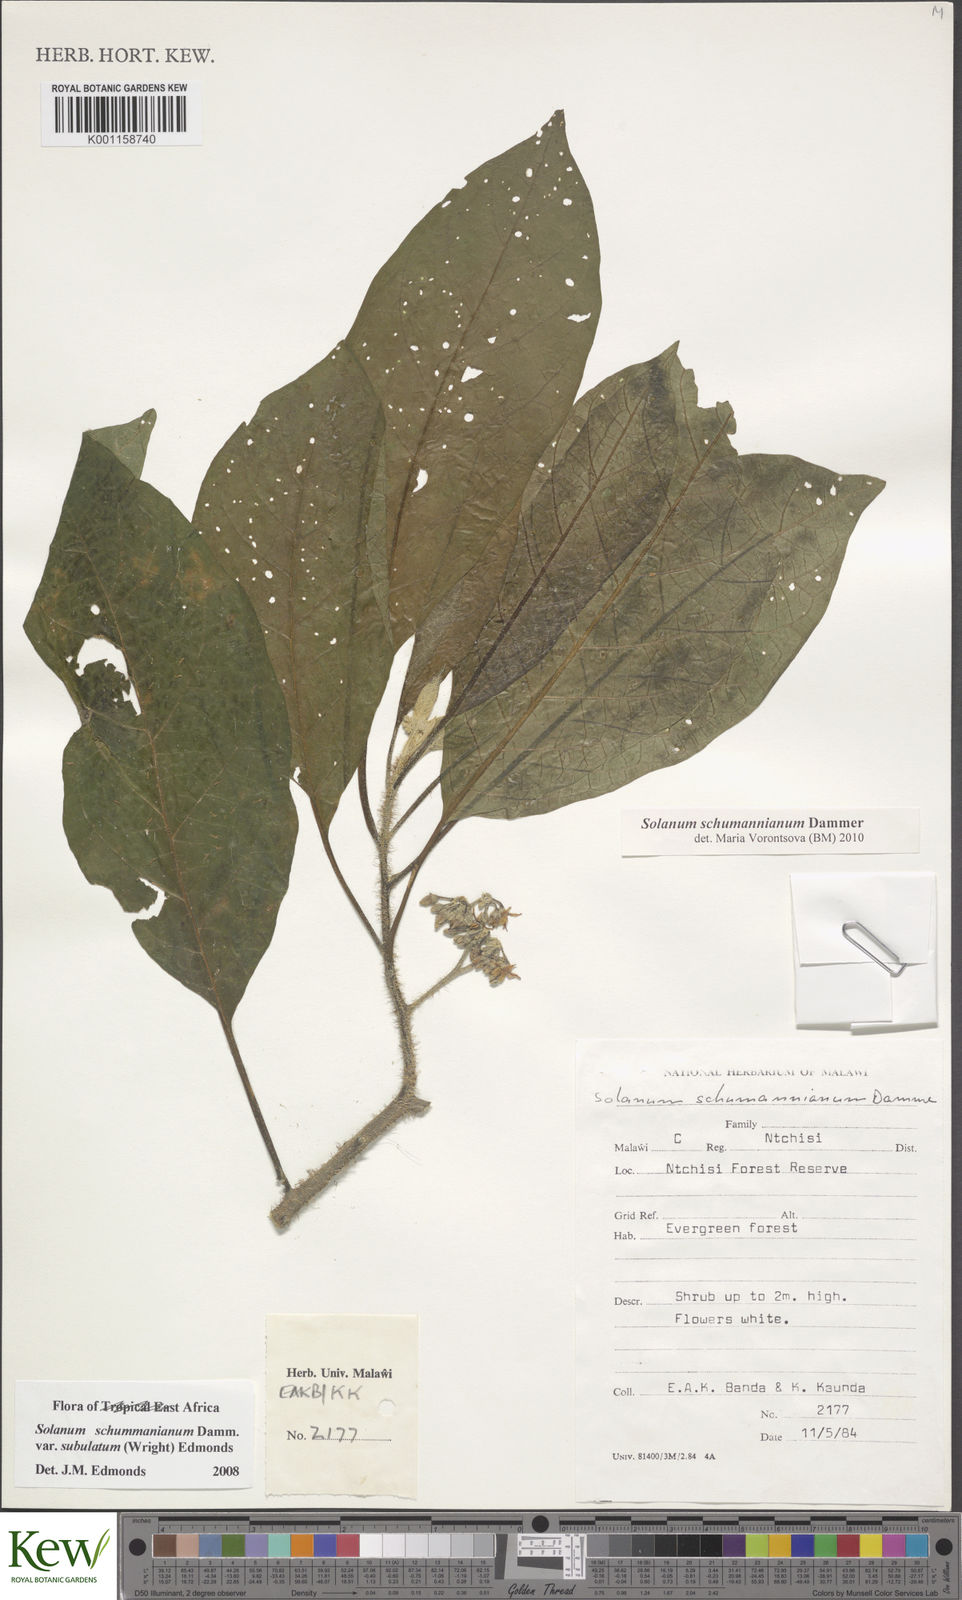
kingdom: Plantae
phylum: Tracheophyta
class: Magnoliopsida
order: Solanales
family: Solanaceae
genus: Solanum
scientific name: Solanum schumannianum
